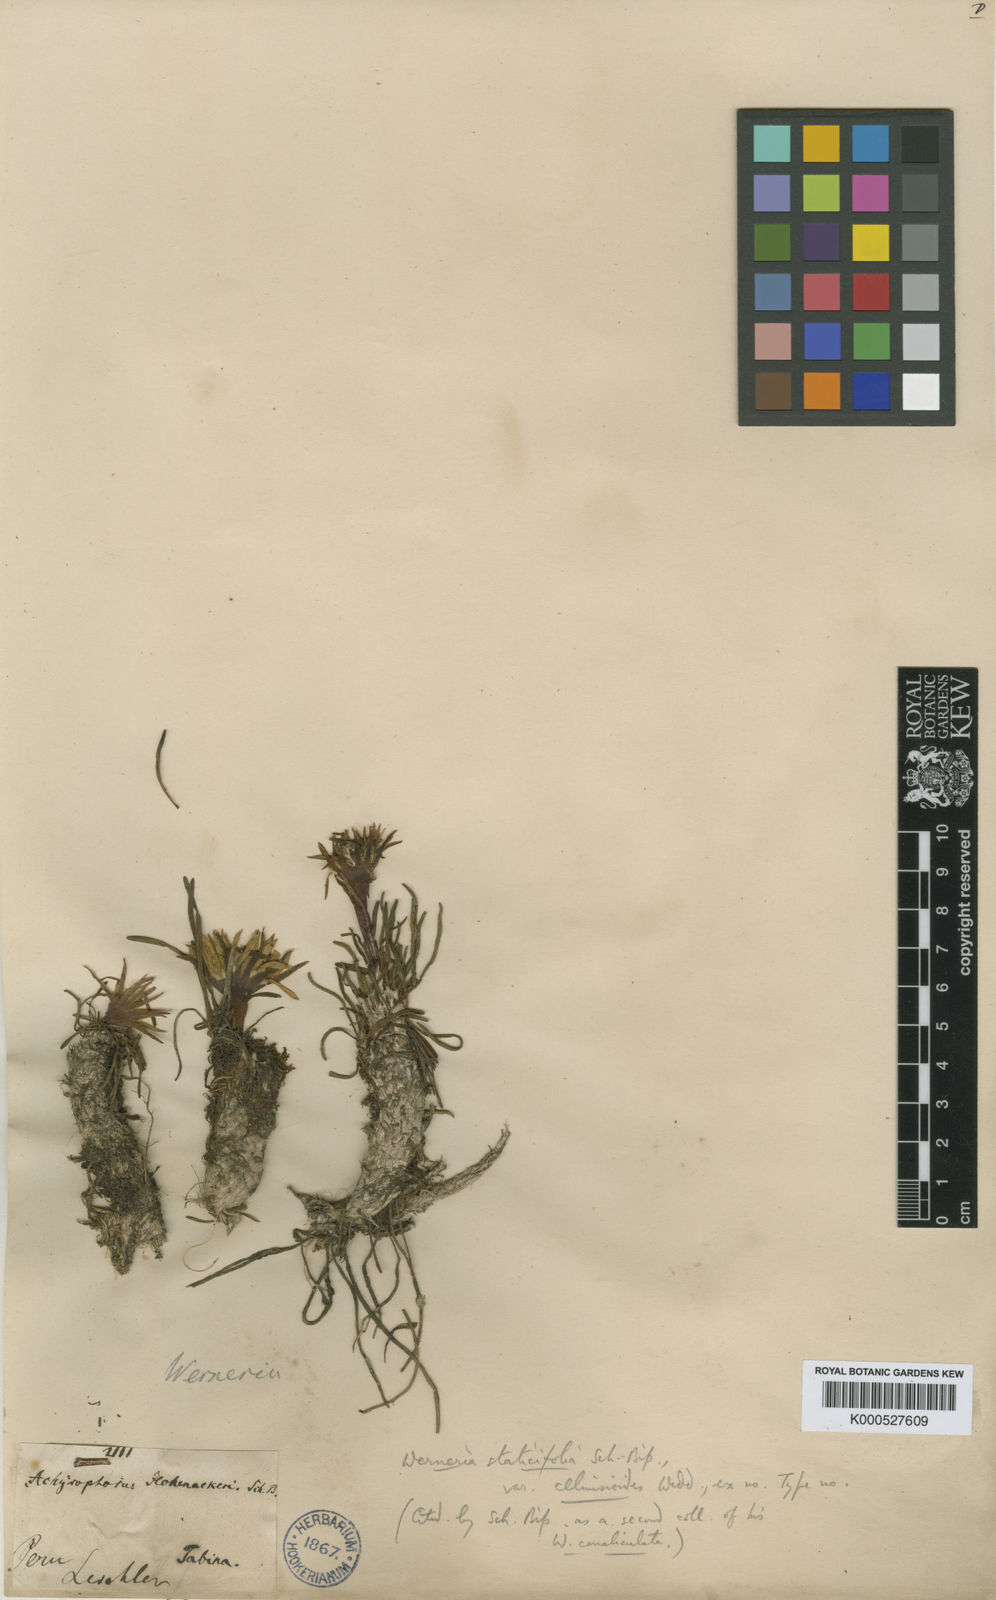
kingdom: Plantae
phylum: Tracheophyta
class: Magnoliopsida
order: Asterales
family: Asteraceae
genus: Rockhausenia
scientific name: Rockhausenia staticifolia
